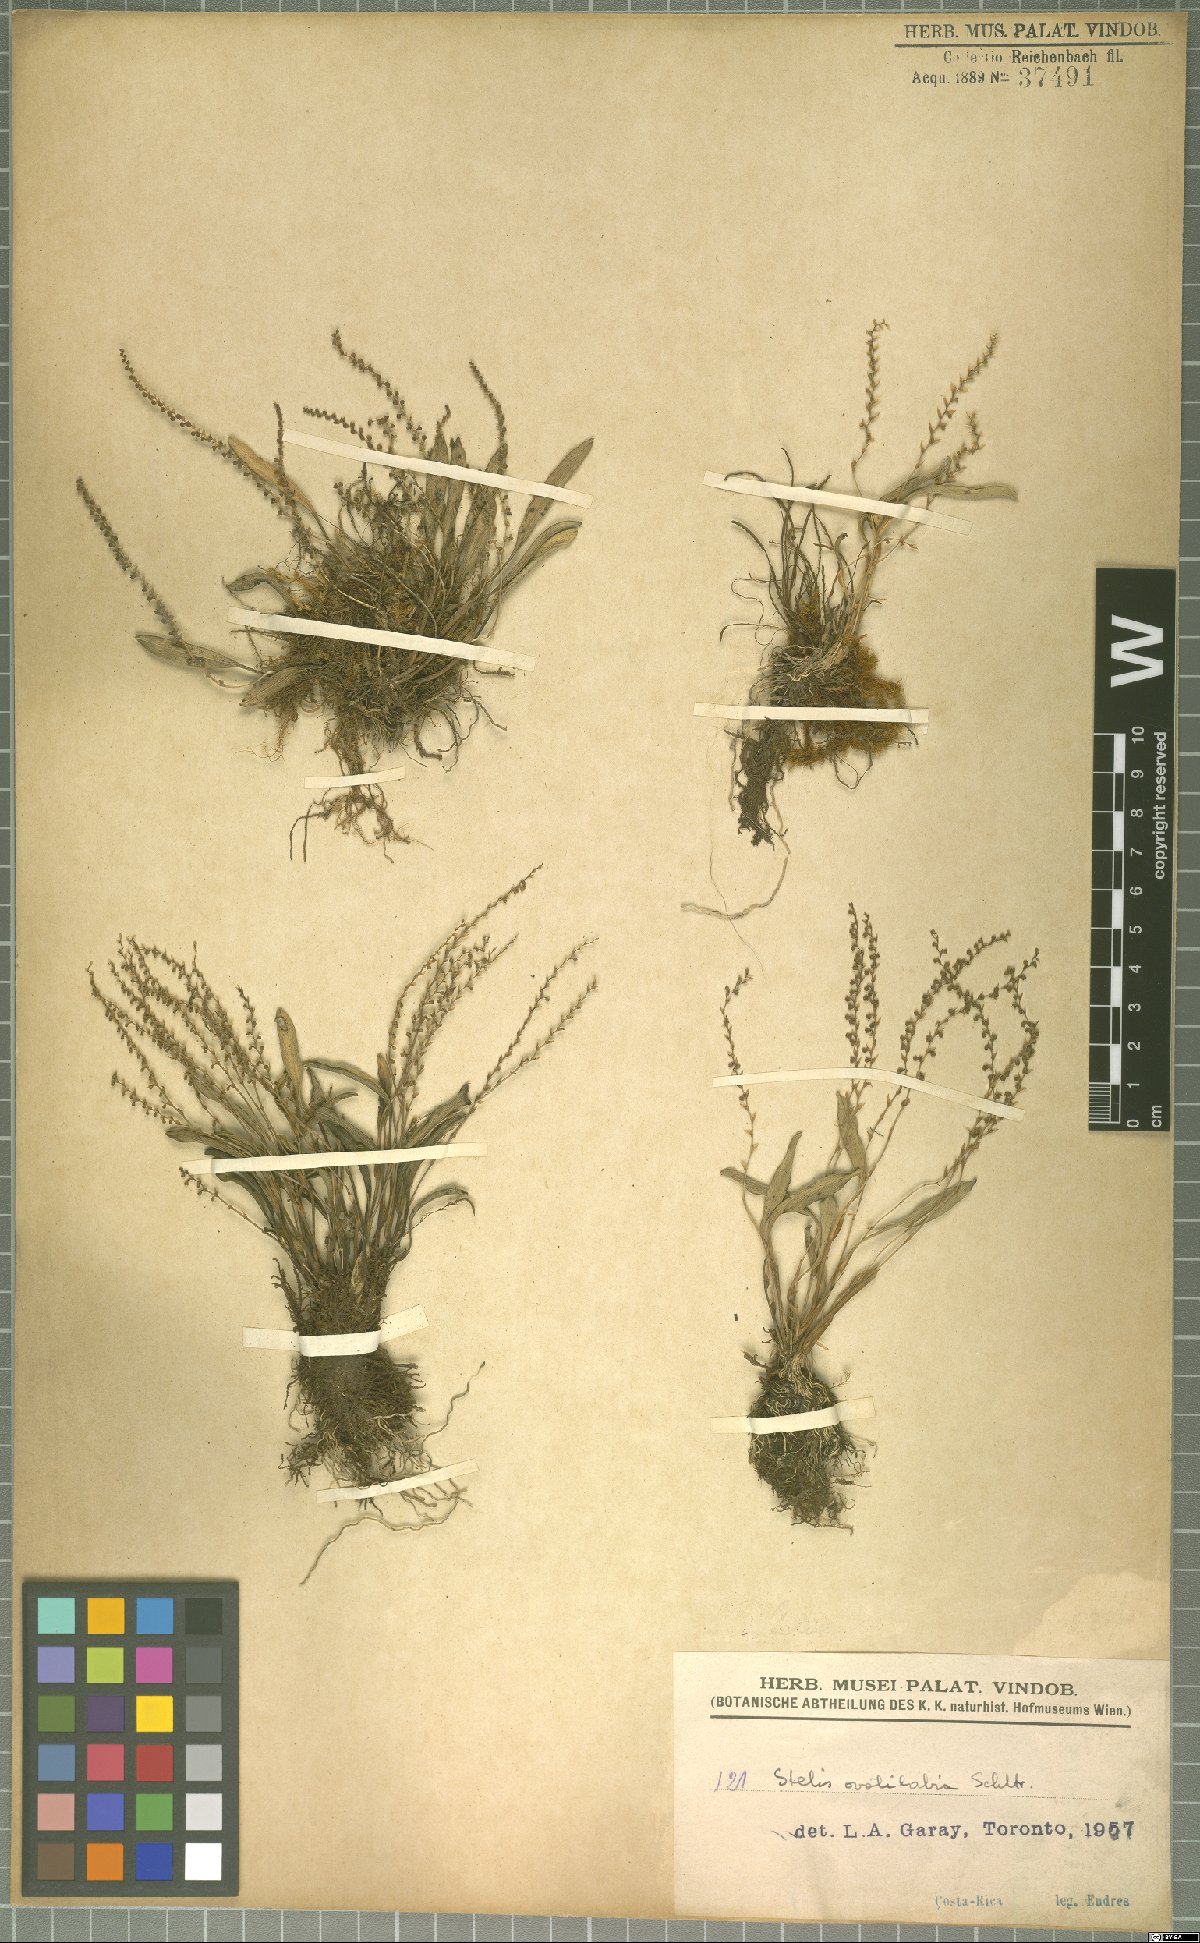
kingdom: Plantae
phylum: Tracheophyta
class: Liliopsida
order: Asparagales
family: Orchidaceae
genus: Stelis
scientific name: Stelis ovatilabia
